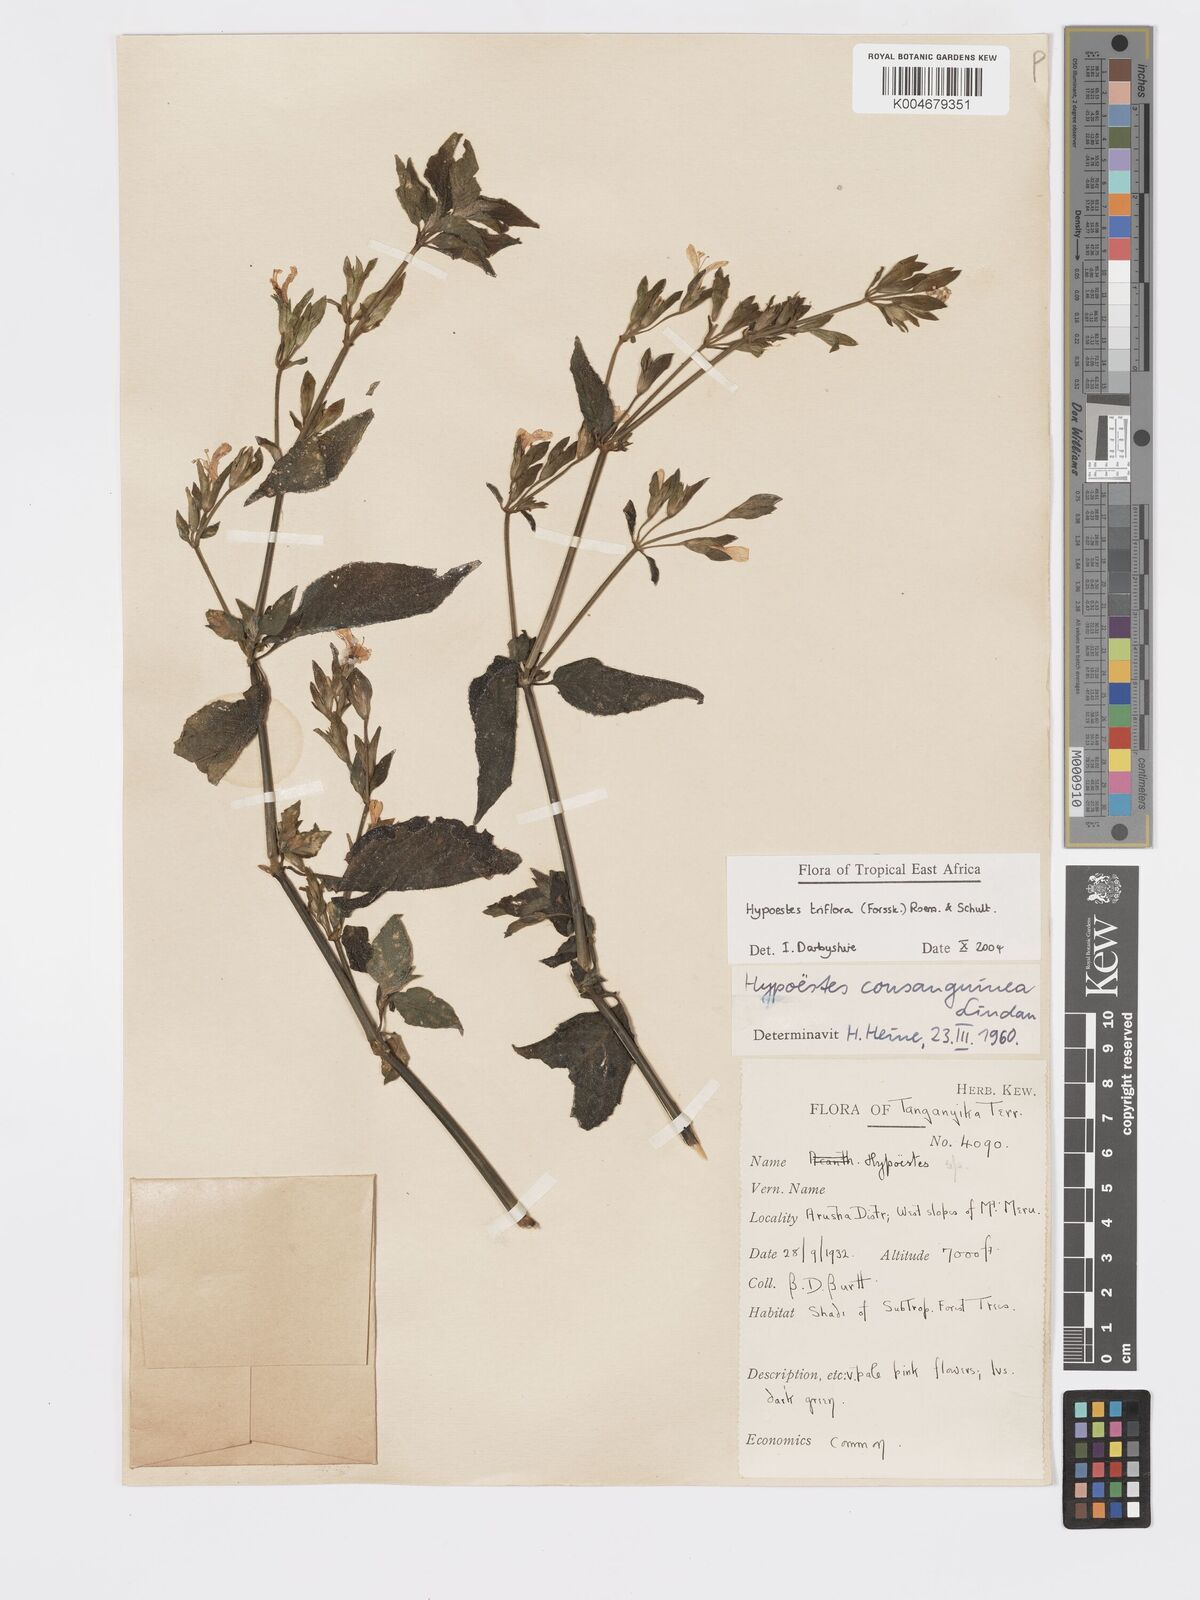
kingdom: Plantae
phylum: Tracheophyta
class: Magnoliopsida
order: Lamiales
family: Acanthaceae
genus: Hypoestes
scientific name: Hypoestes triflora
